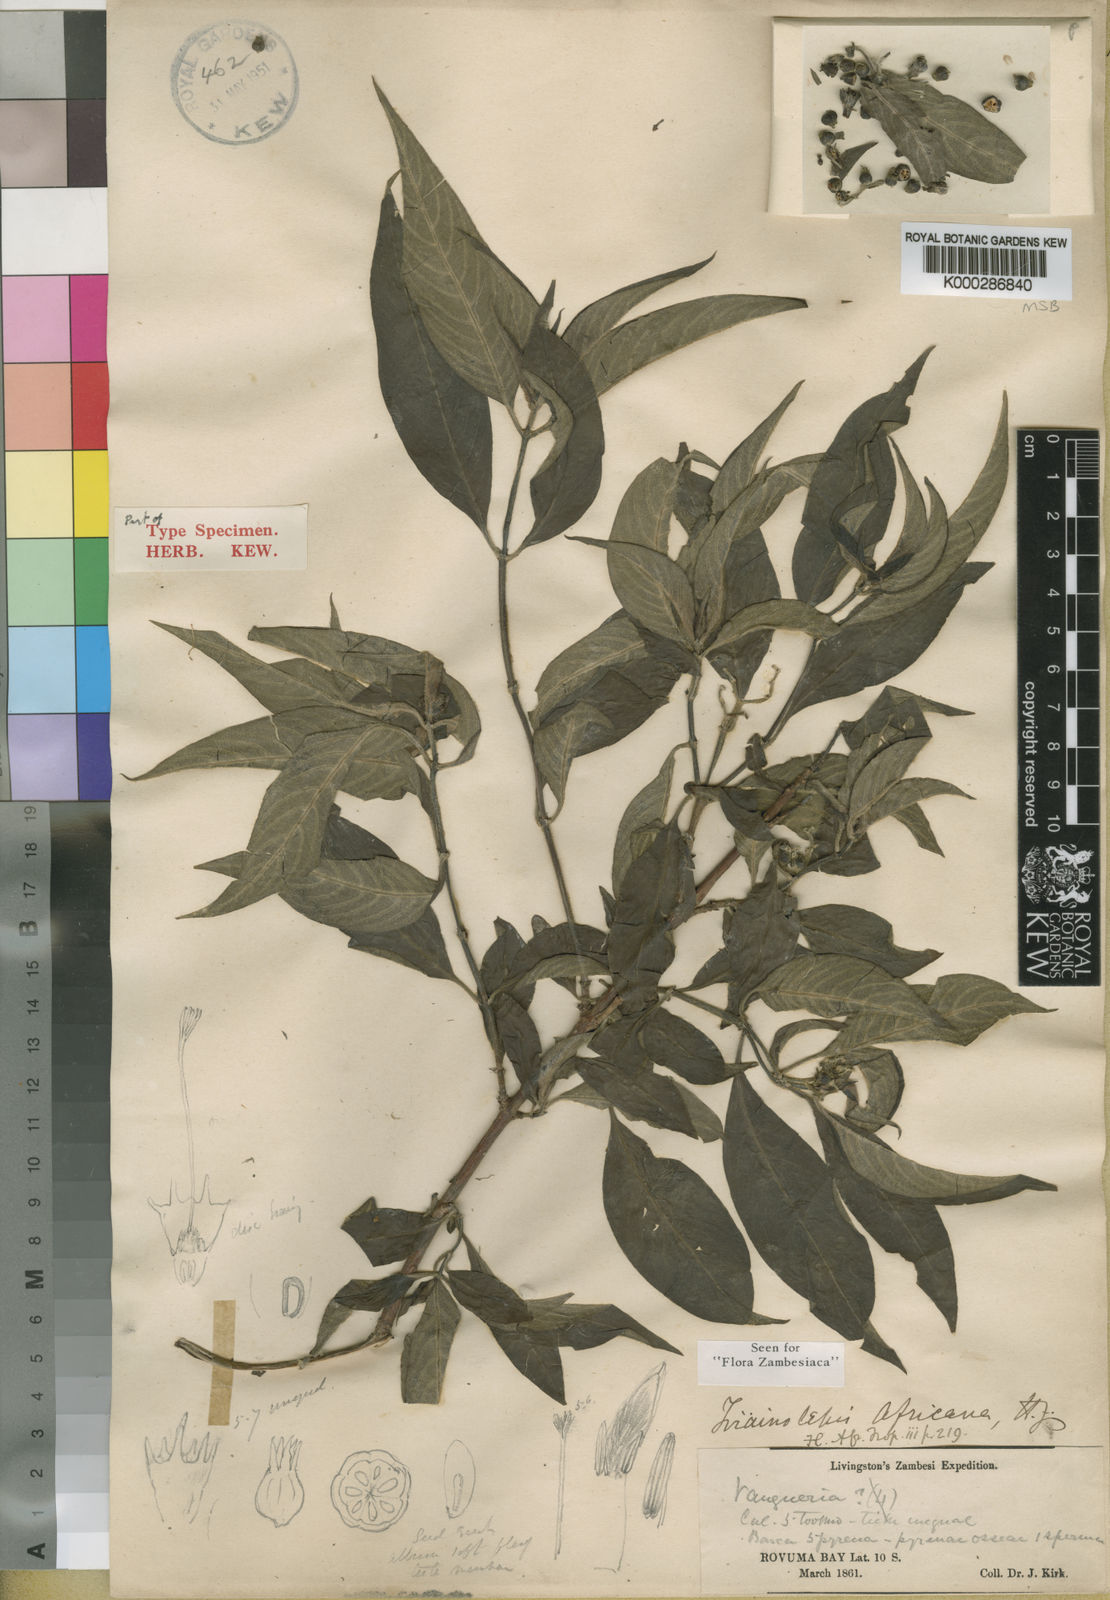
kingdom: Plantae
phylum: Tracheophyta
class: Magnoliopsida
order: Gentianales
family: Rubiaceae
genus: Triainolepis
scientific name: Triainolepis africana
